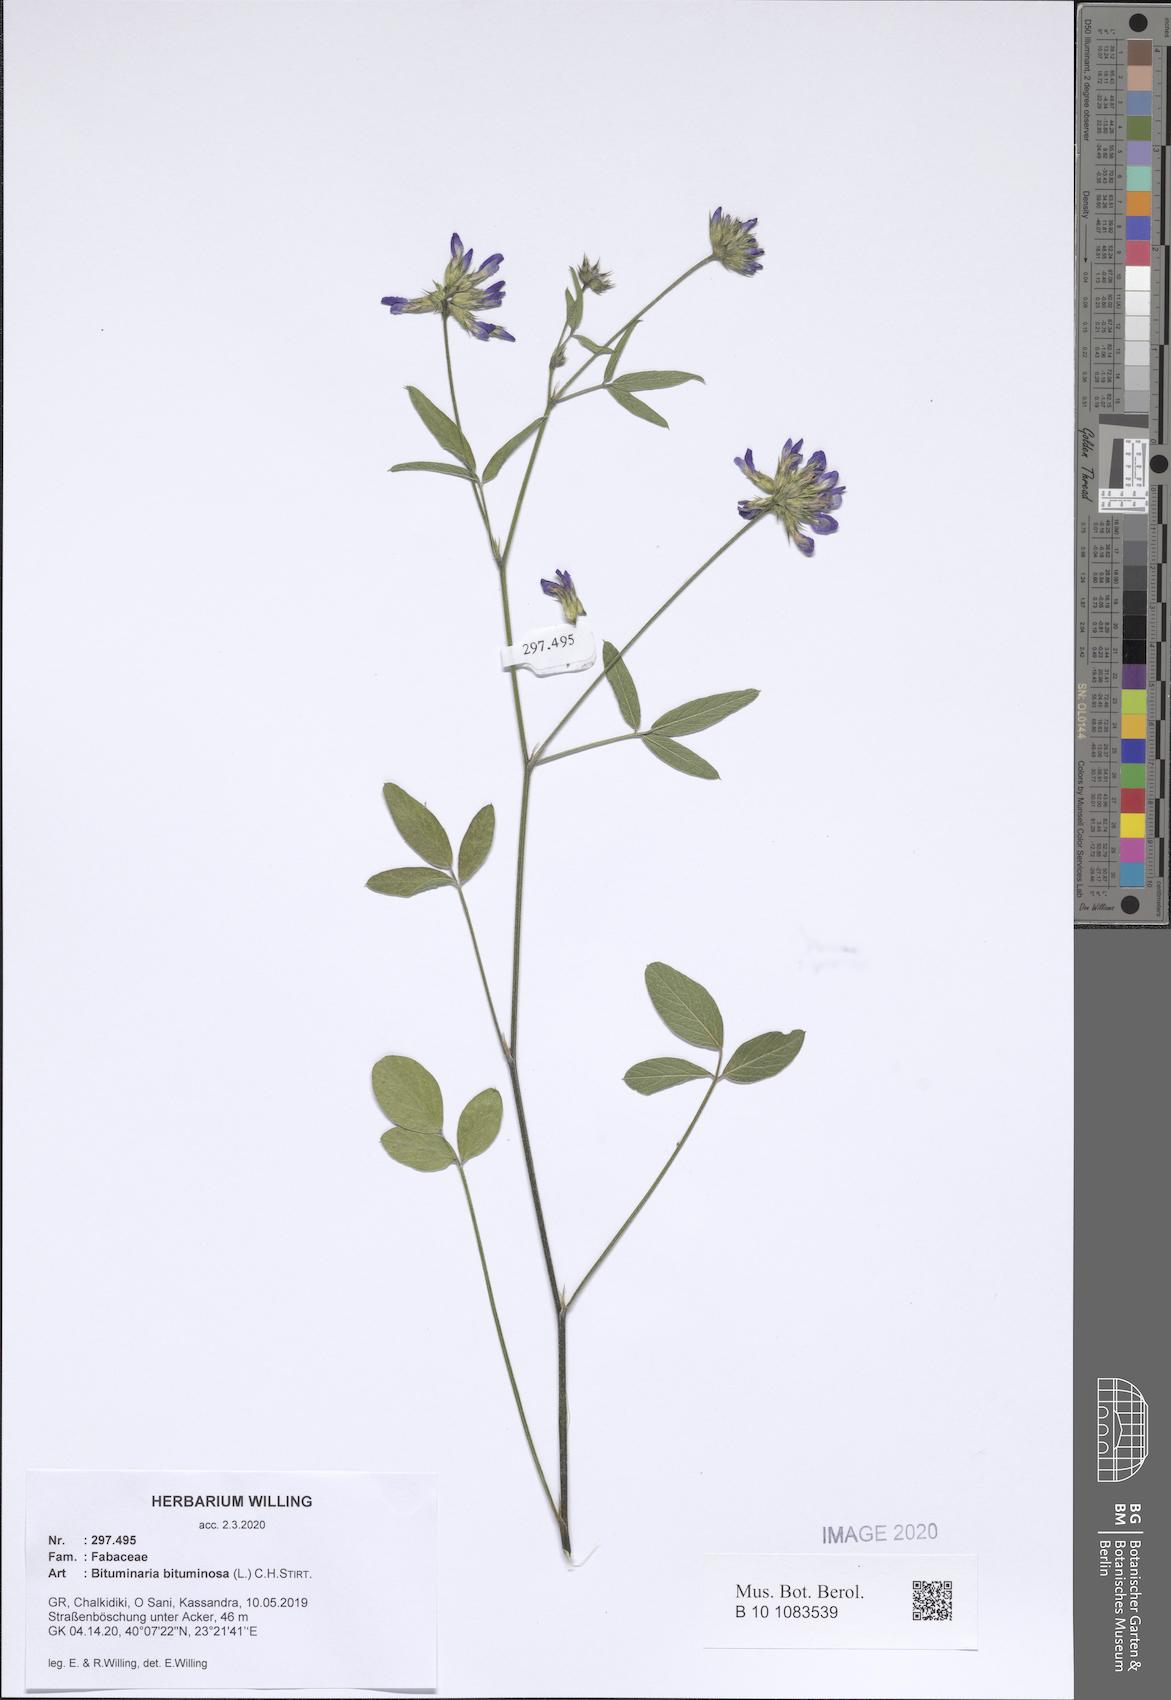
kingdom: Plantae
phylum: Tracheophyta
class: Magnoliopsida
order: Fabales
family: Fabaceae
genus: Bituminaria
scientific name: Bituminaria bituminosa
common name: Arabian pea
